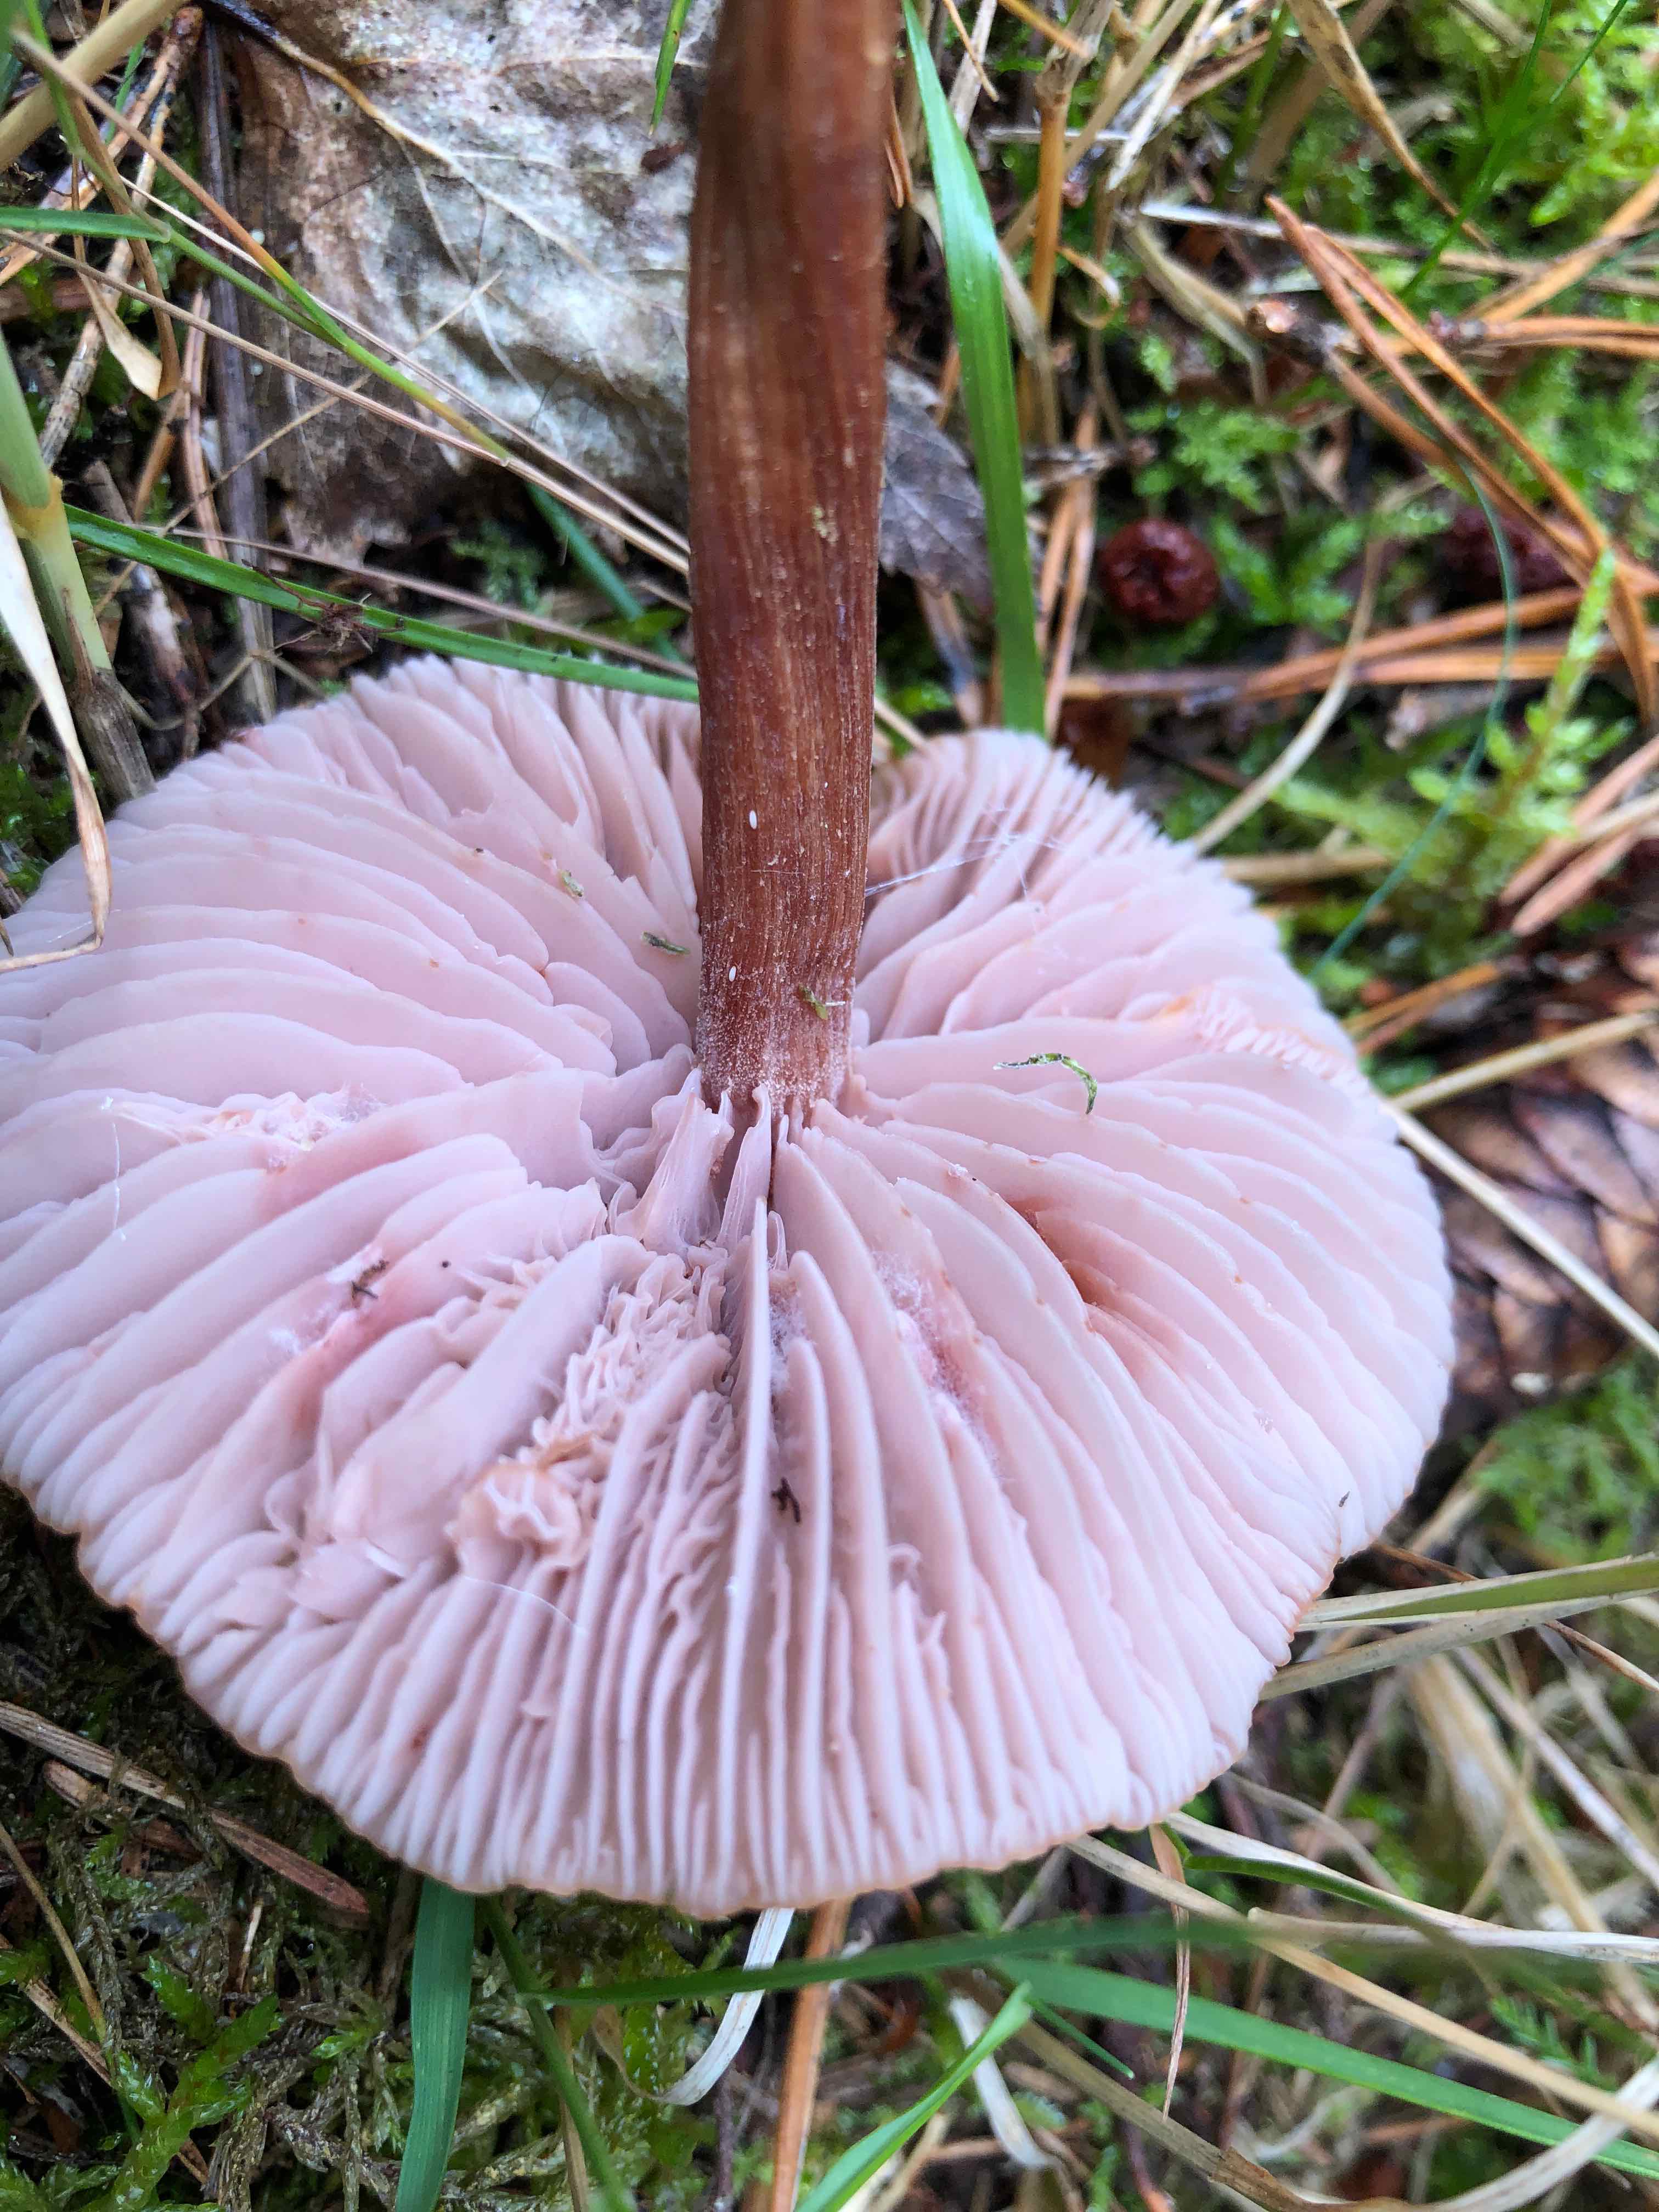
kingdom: Fungi
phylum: Basidiomycota
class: Agaricomycetes
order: Agaricales
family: Hydnangiaceae
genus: Laccaria
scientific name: Laccaria bicolor
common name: tvefarvet ametysthat
